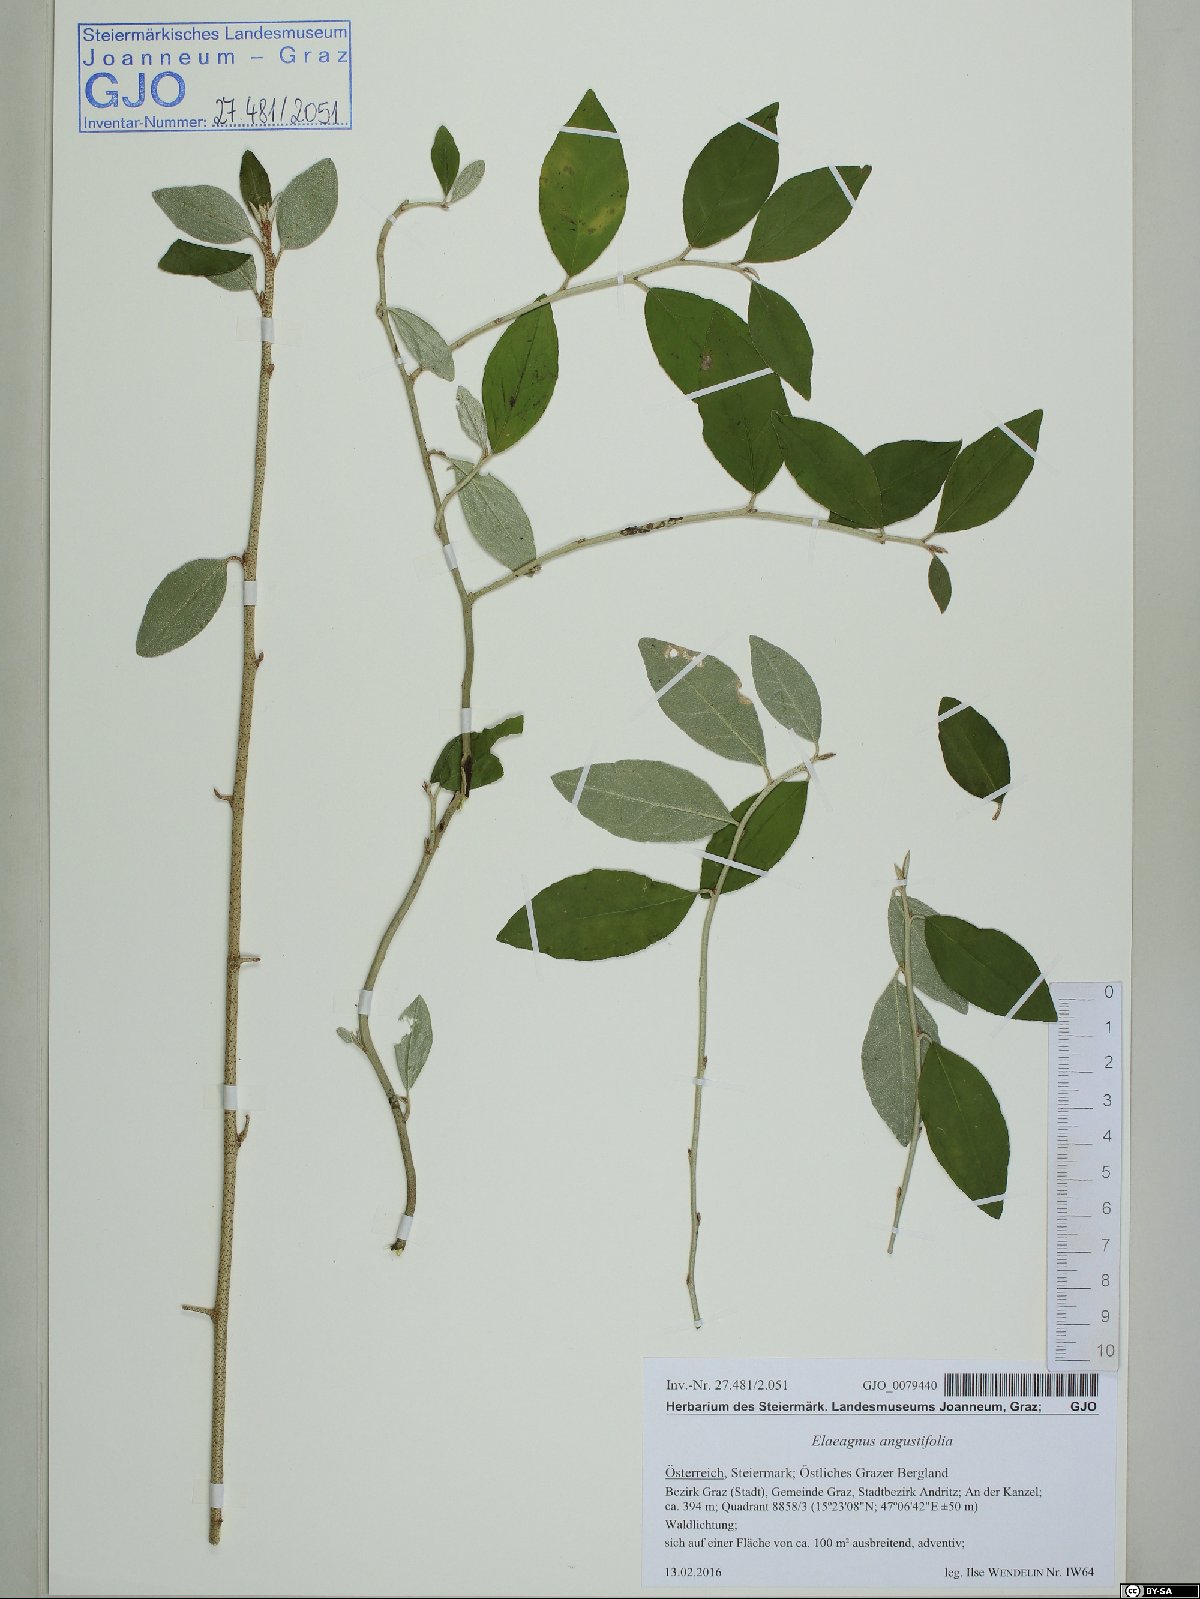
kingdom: Plantae
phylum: Tracheophyta
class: Magnoliopsida
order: Rosales
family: Elaeagnaceae
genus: Elaeagnus
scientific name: Elaeagnus angustifolia
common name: Russian olive
